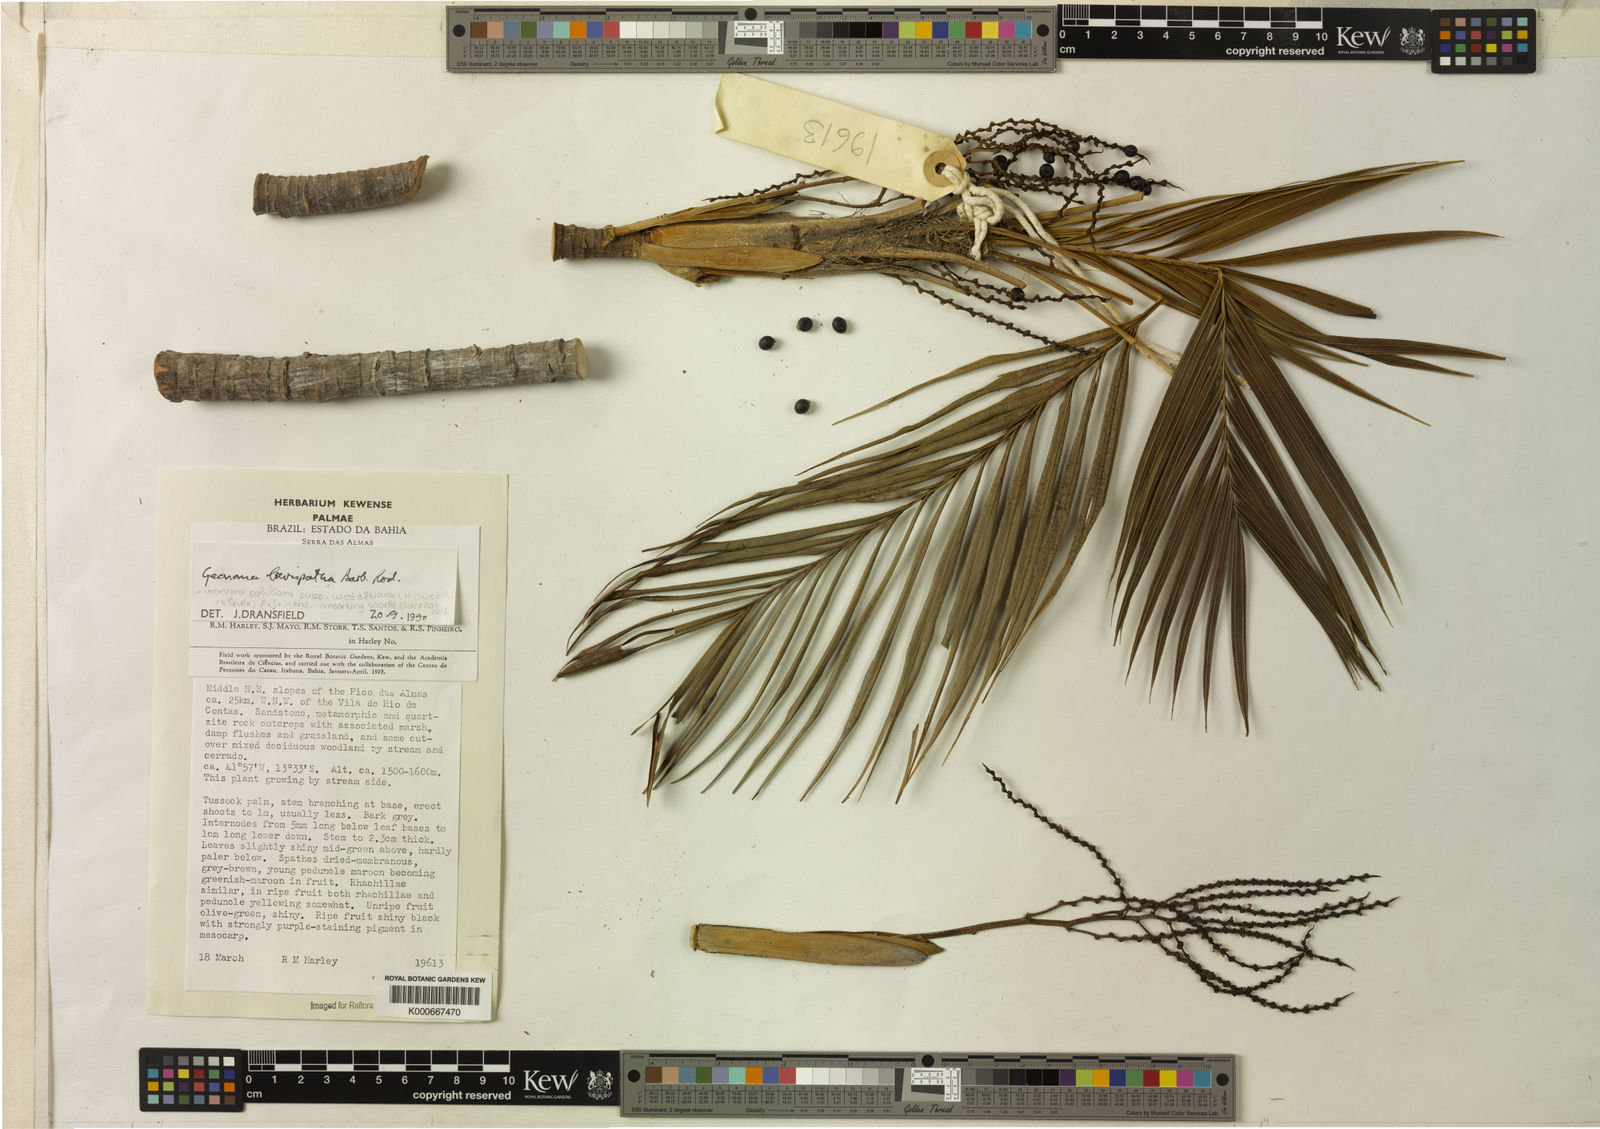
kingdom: Plantae
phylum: Tracheophyta
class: Liliopsida
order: Arecales
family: Arecaceae
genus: Geonoma
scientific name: Geonoma pohliana
